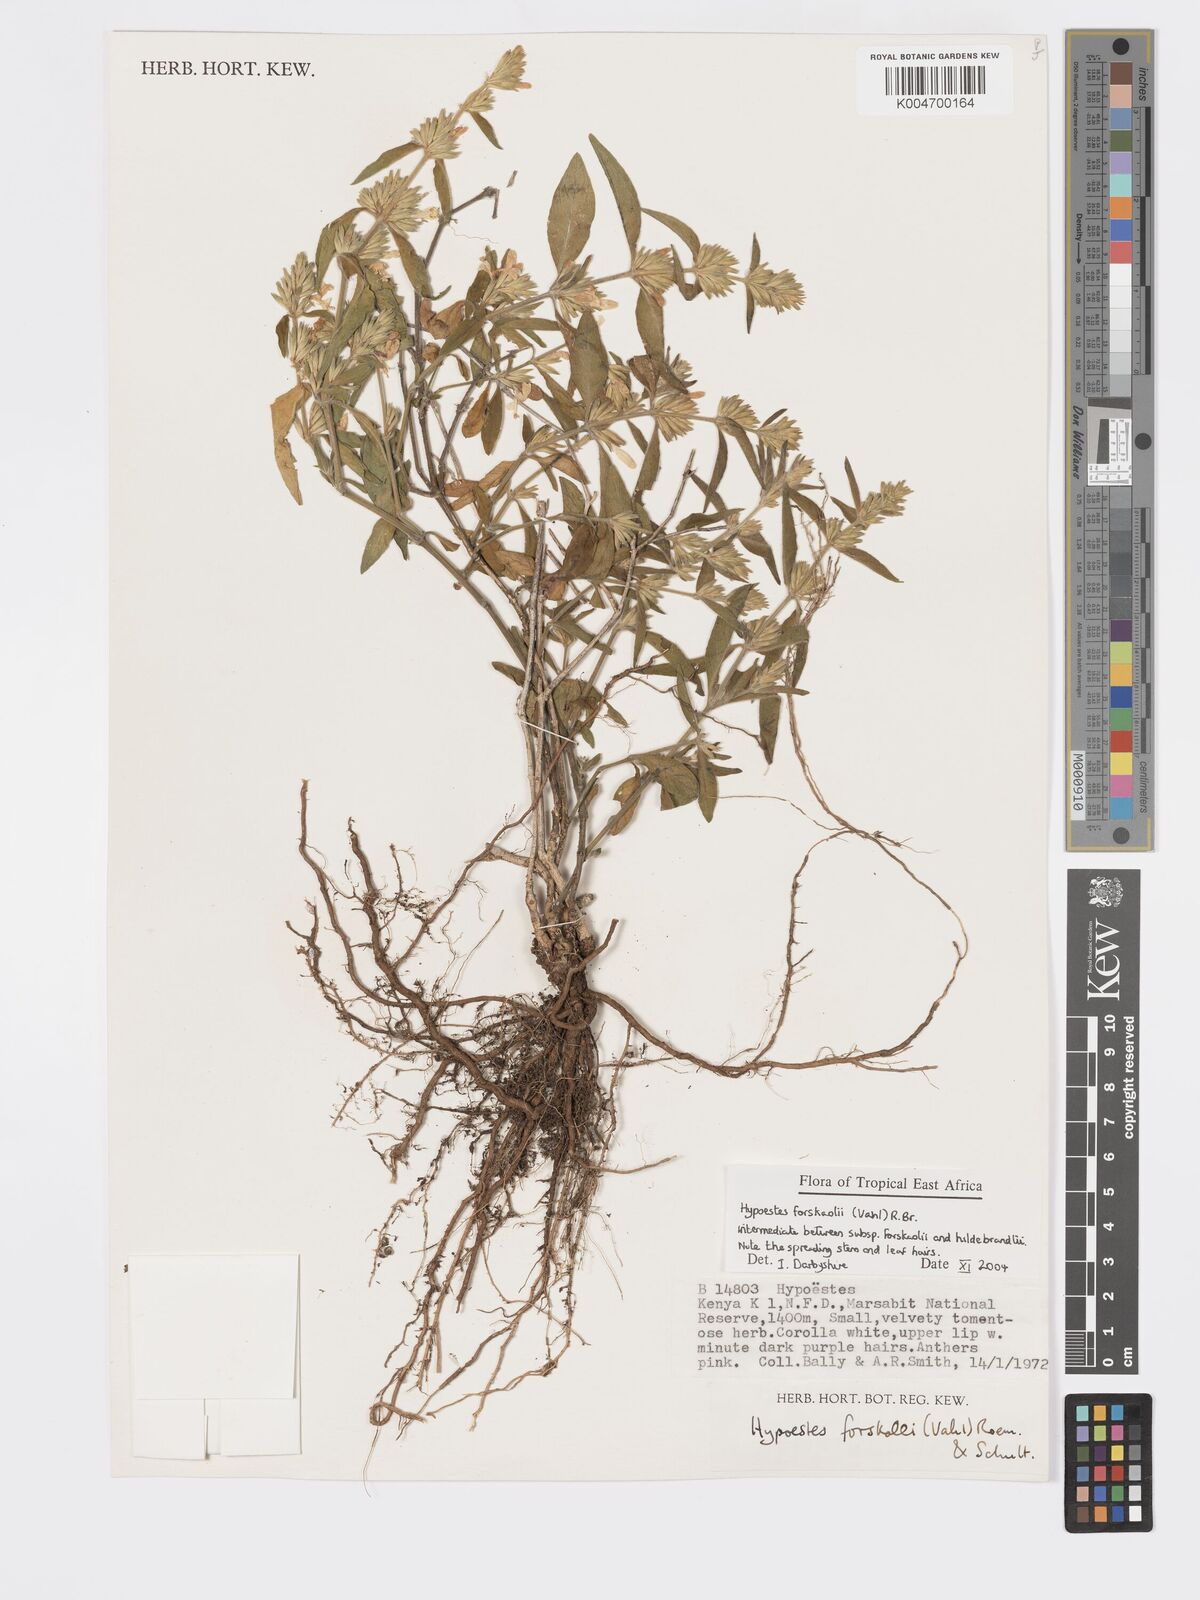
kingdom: Plantae
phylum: Tracheophyta
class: Magnoliopsida
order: Lamiales
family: Acanthaceae
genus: Hypoestes
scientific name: Hypoestes forskaolii
